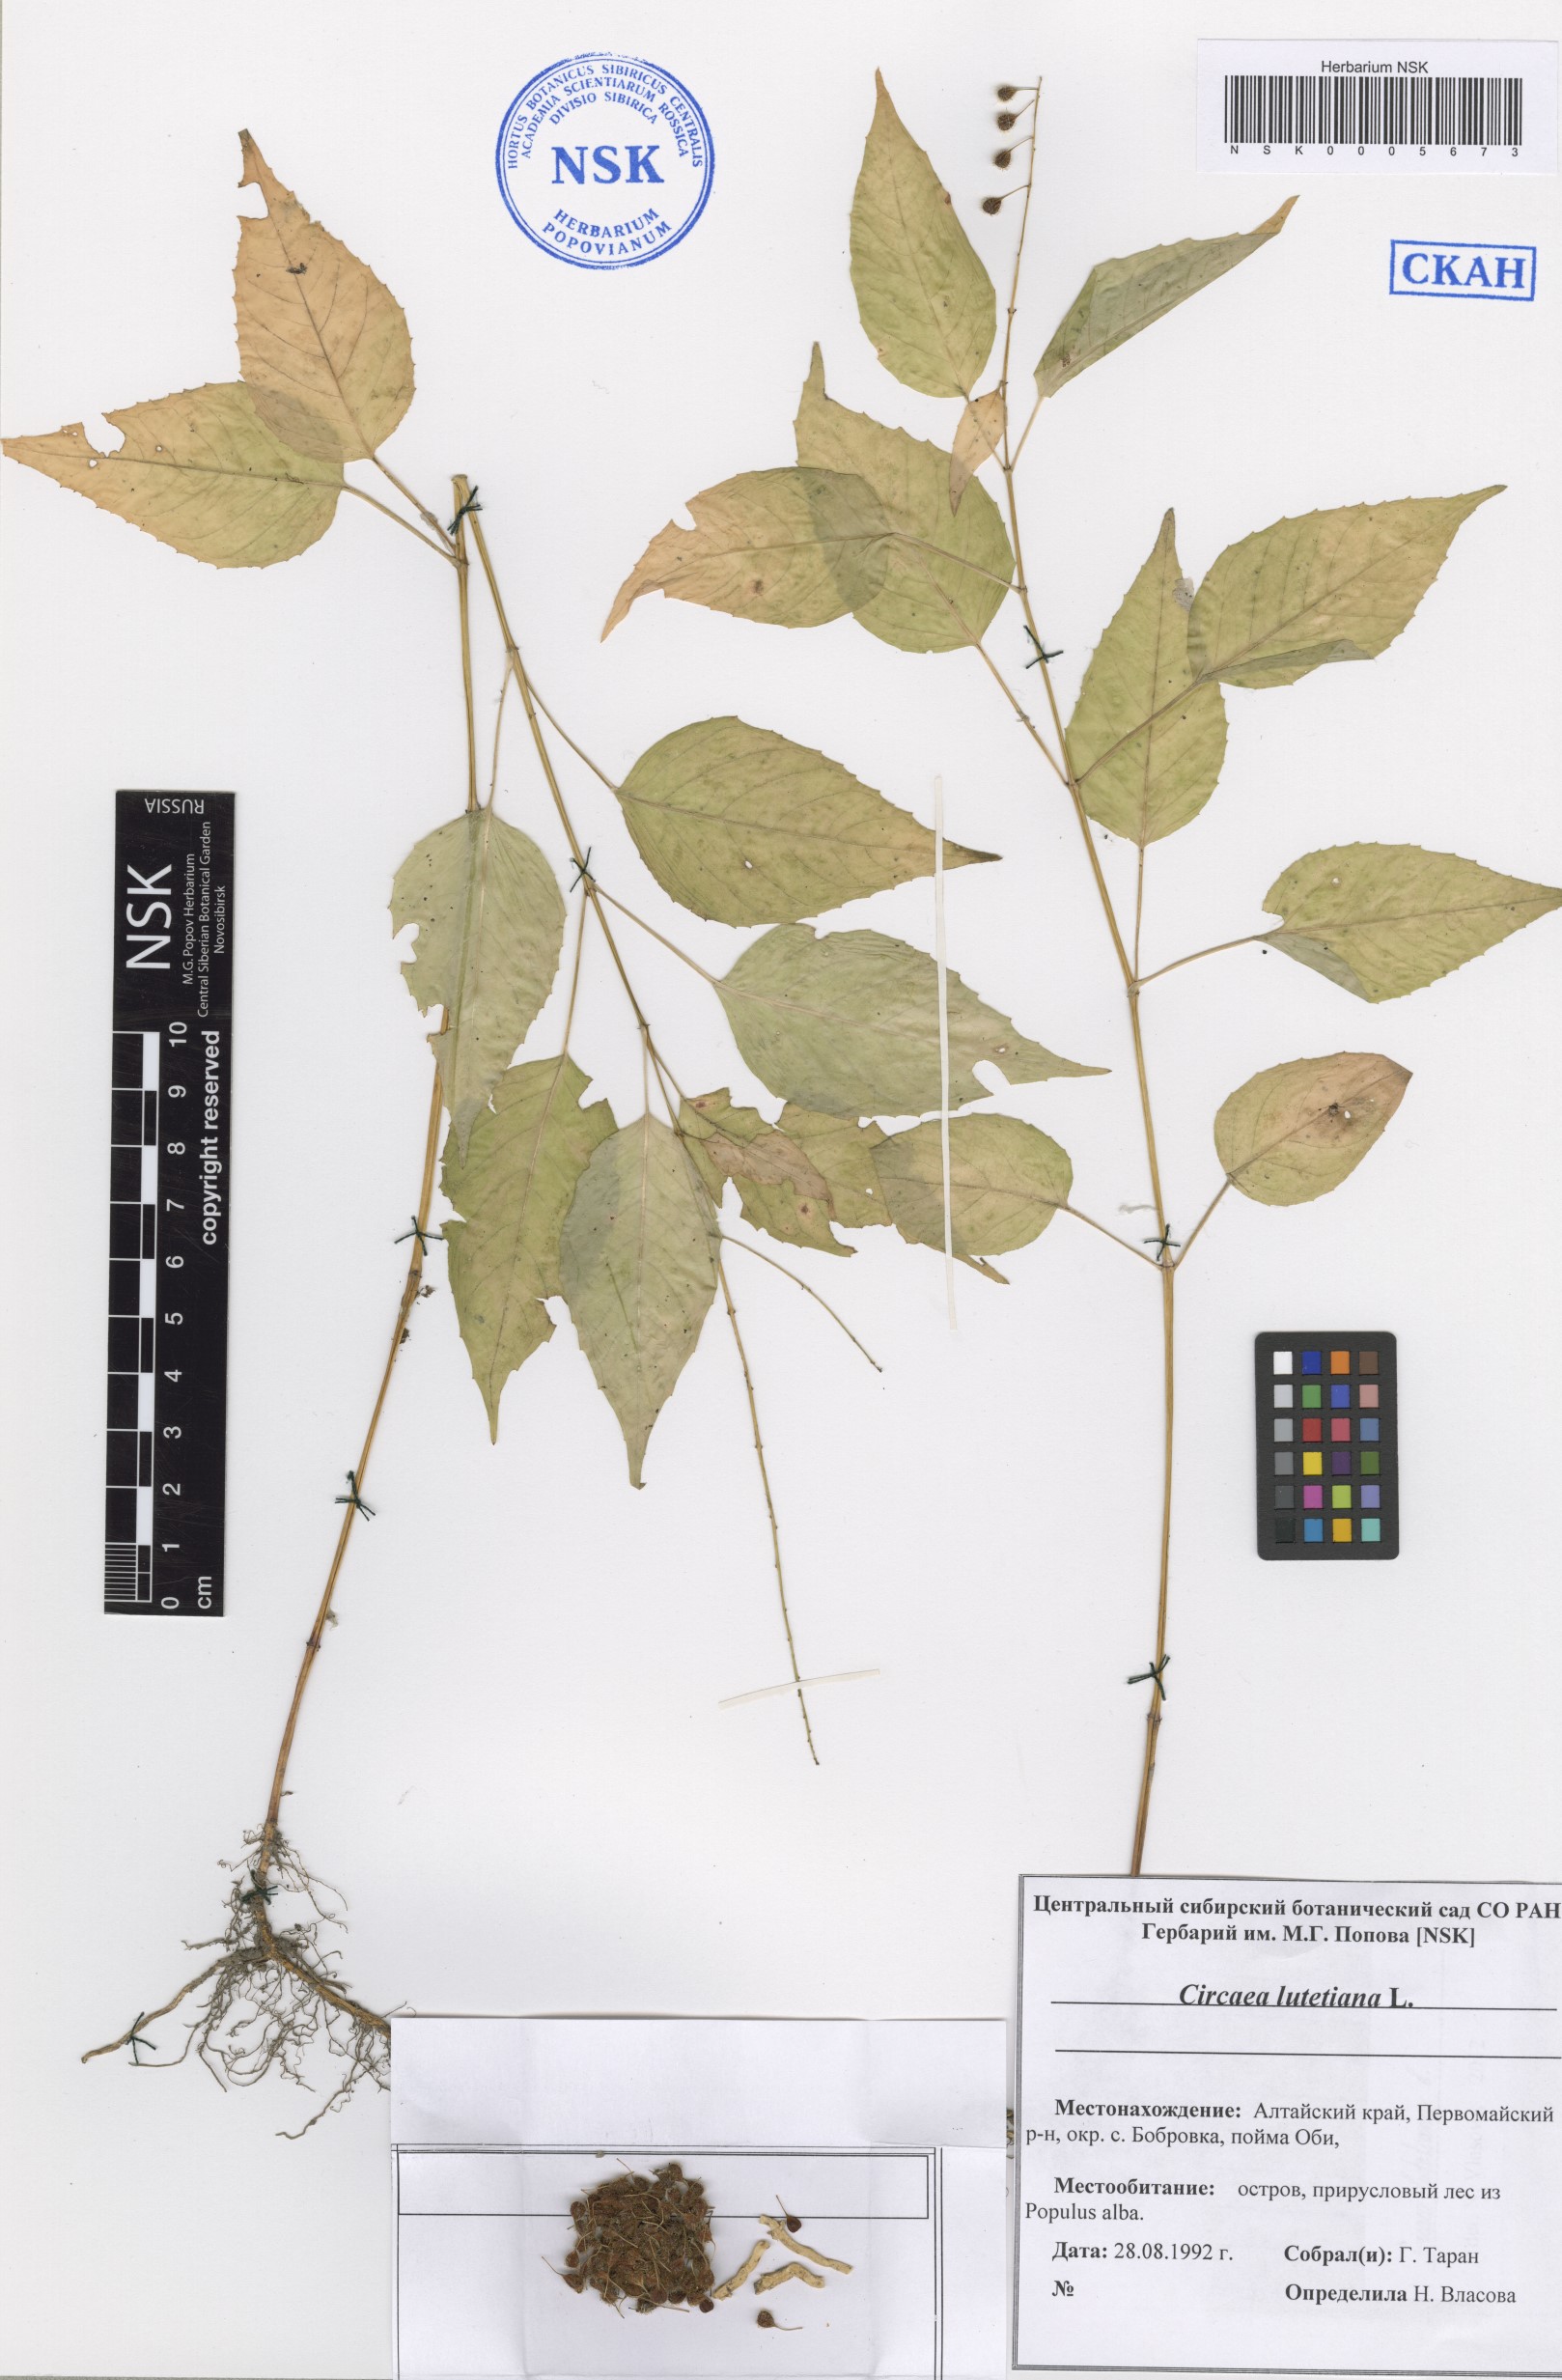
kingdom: Plantae
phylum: Tracheophyta
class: Magnoliopsida
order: Myrtales
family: Onagraceae
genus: Circaea
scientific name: Circaea lutetiana
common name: Enchanter's-nightshade
